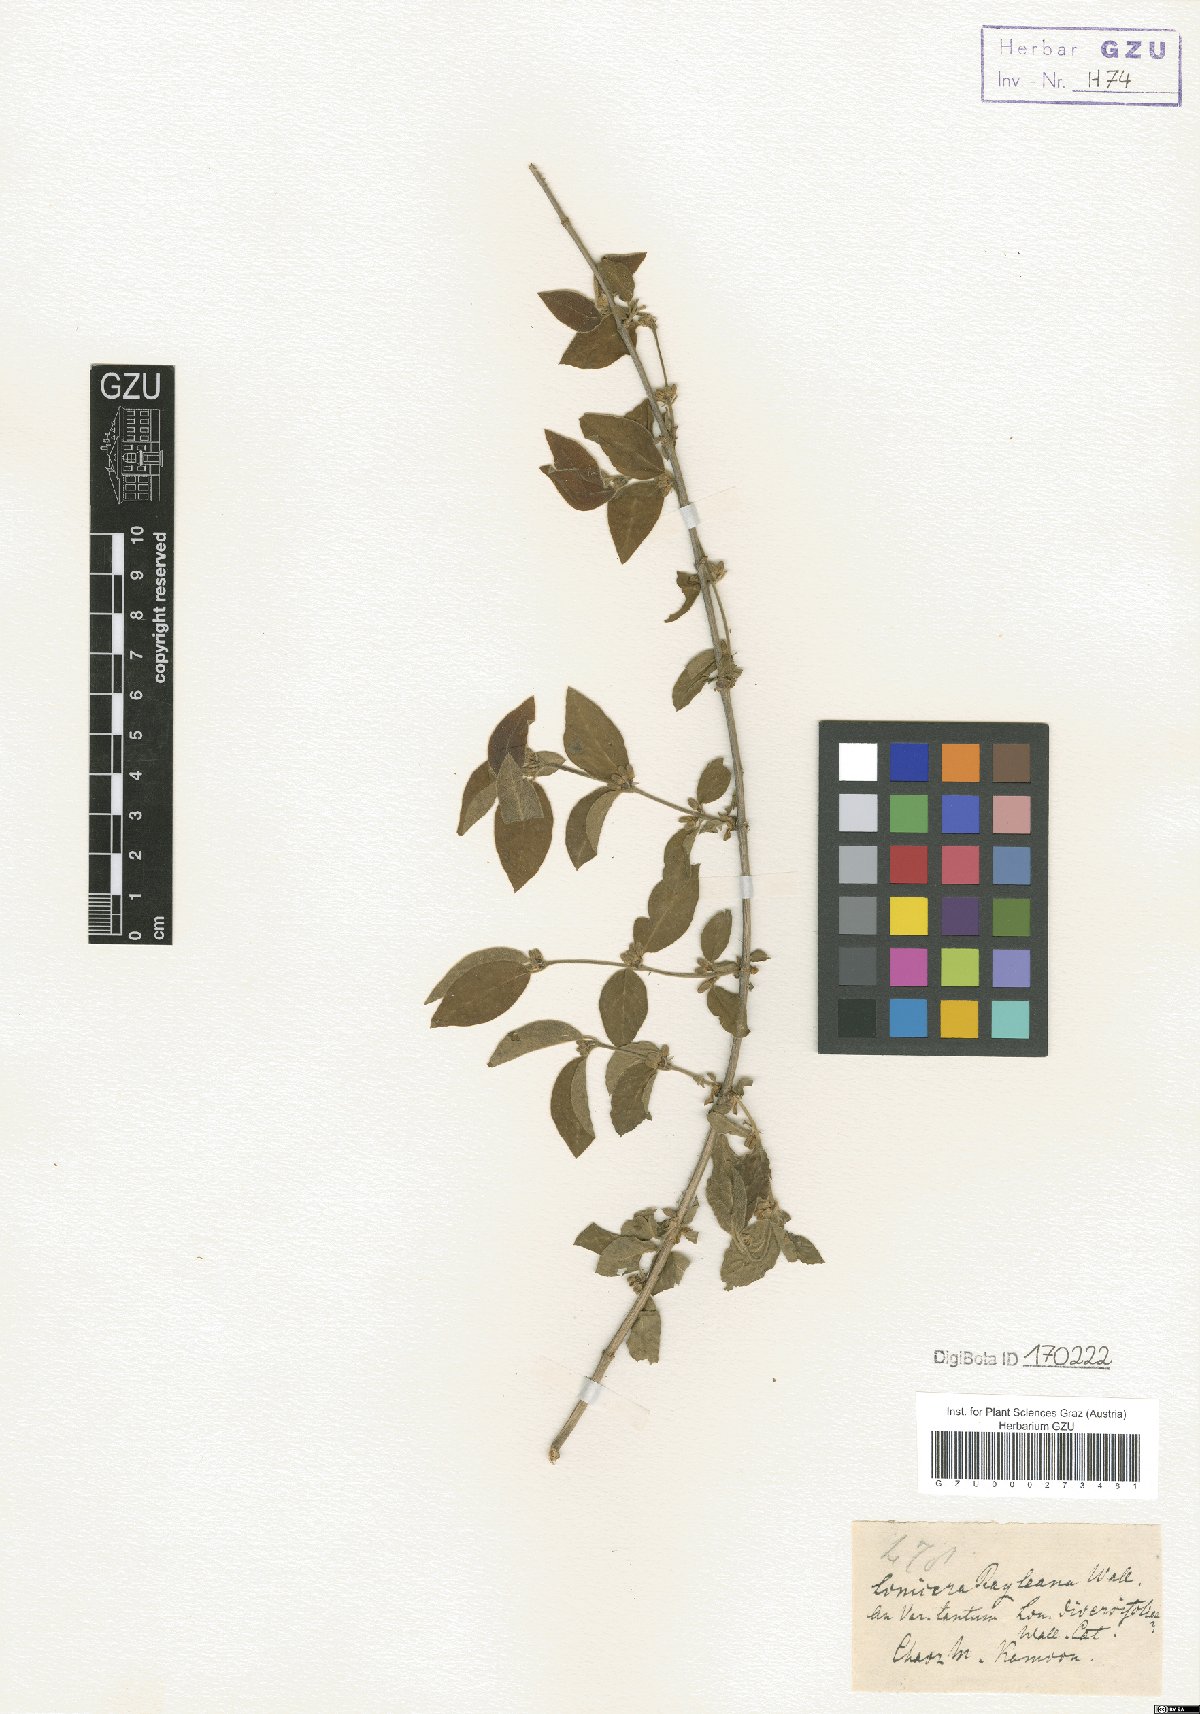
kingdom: Plantae
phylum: Tracheophyta
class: Magnoliopsida
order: Dipsacales
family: Caprifoliaceae
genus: Lonicera
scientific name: Lonicera quinquelocularis
